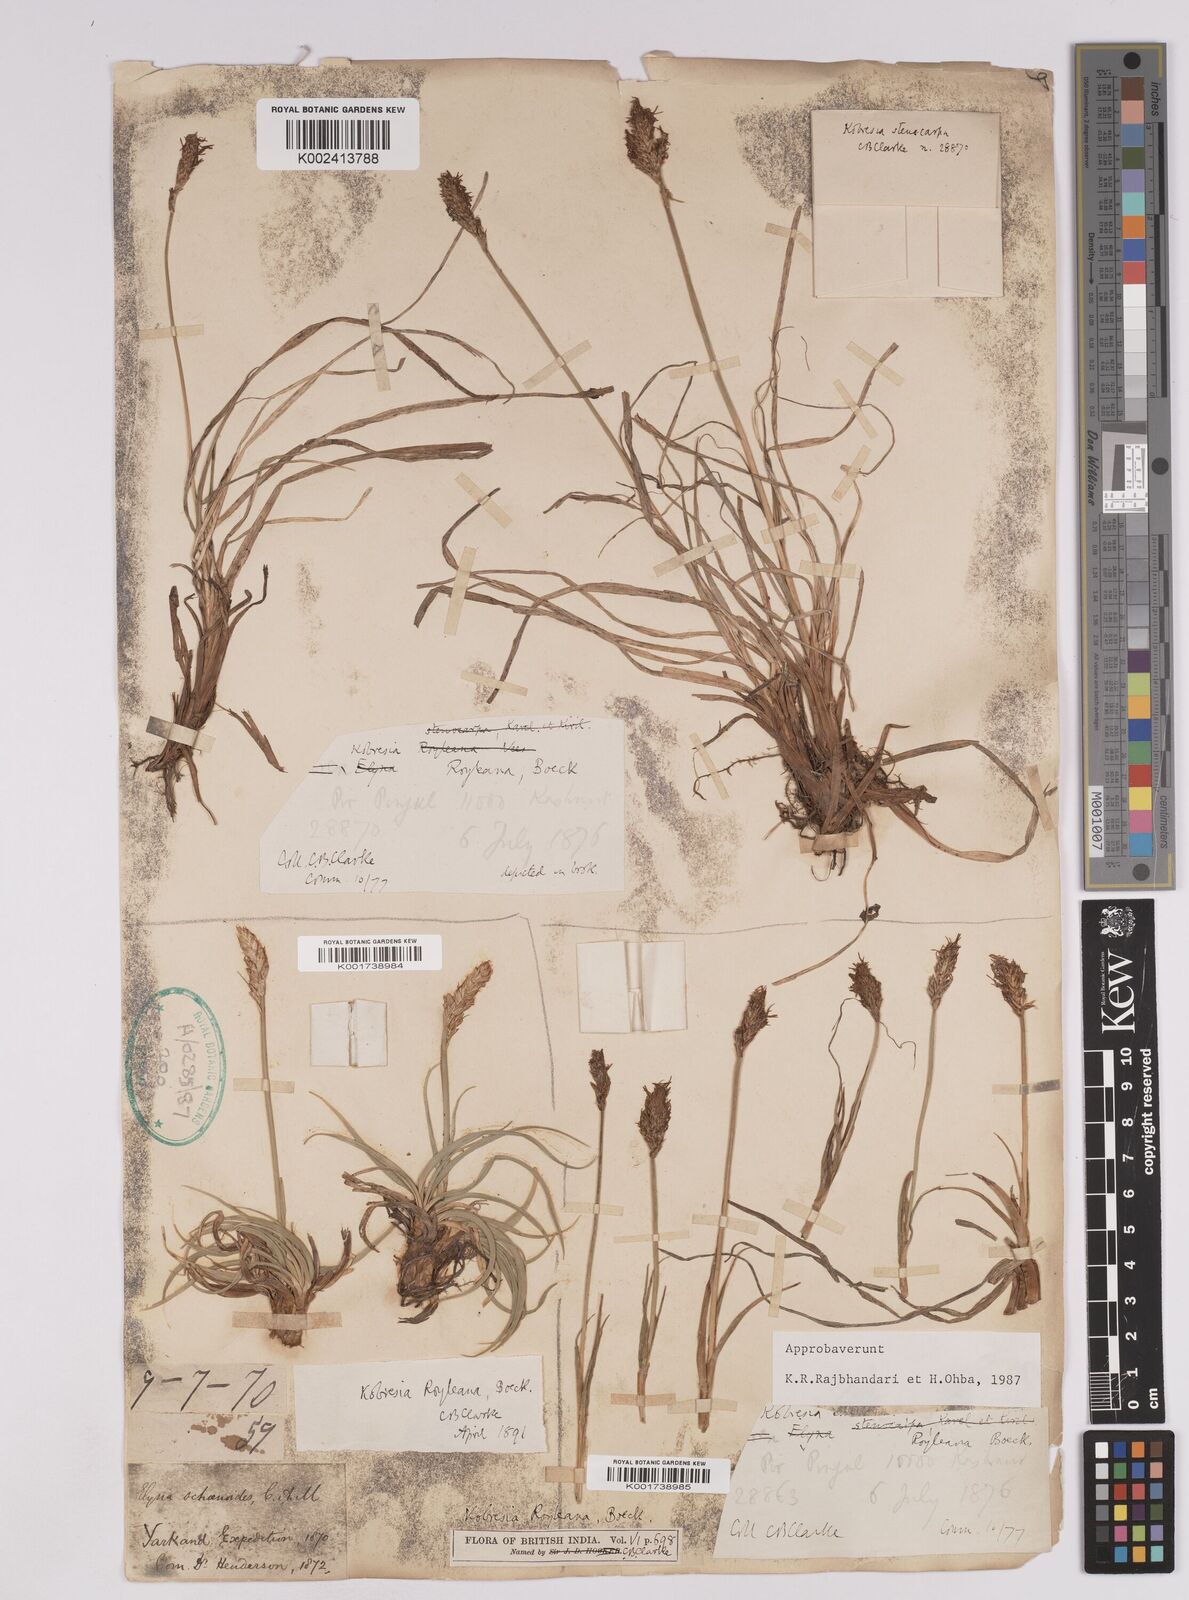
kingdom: Plantae
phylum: Tracheophyta
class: Liliopsida
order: Poales
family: Cyperaceae
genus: Carex
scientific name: Carex kokanica
